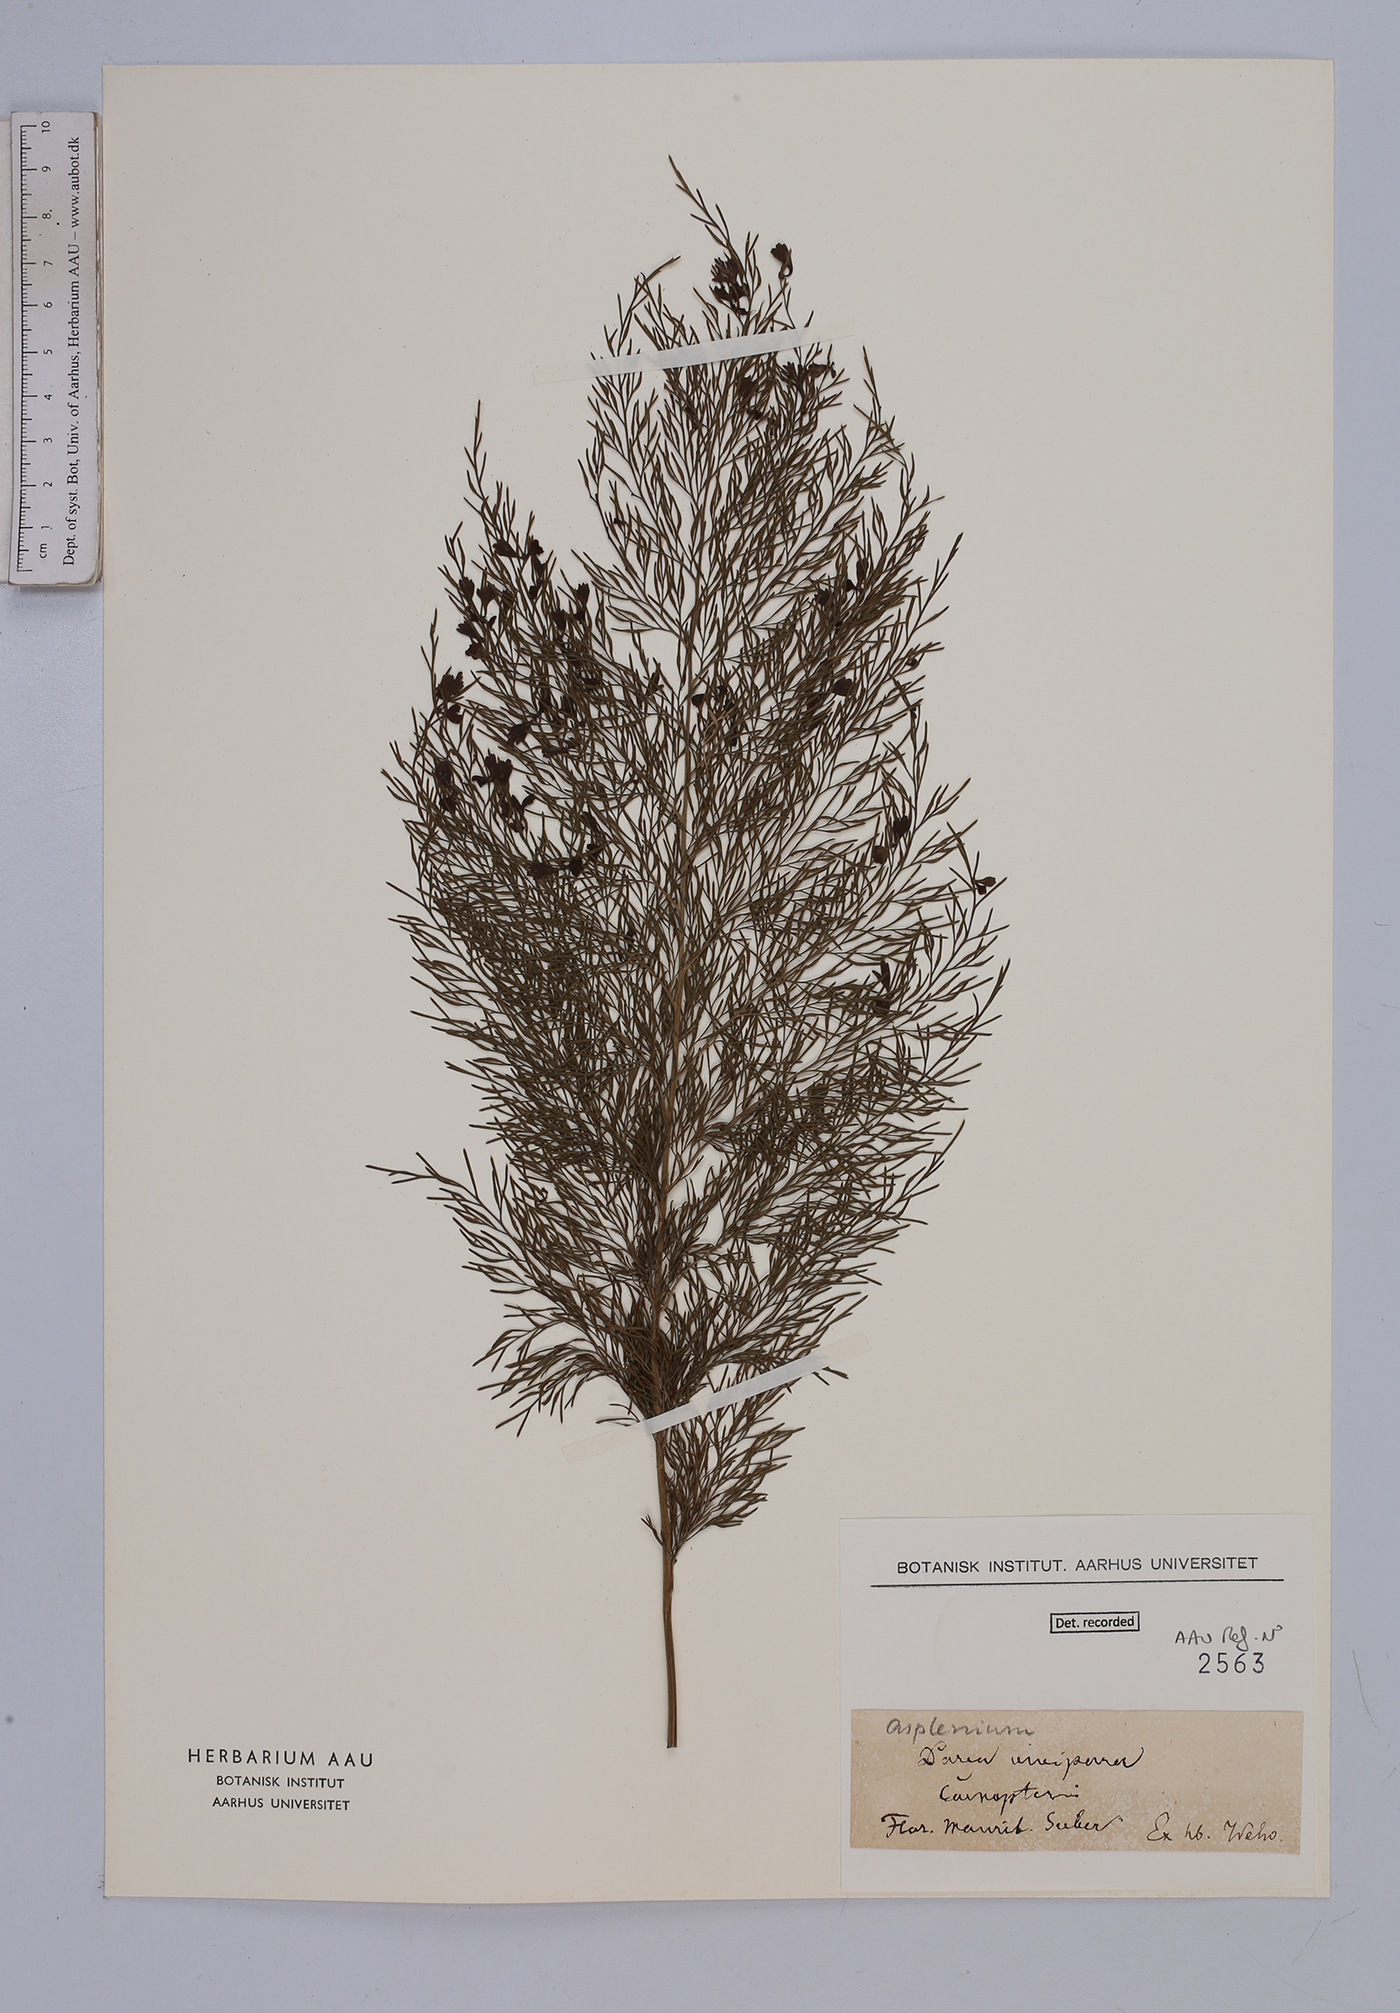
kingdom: Plantae
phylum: Tracheophyta
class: Polypodiopsida
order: Polypodiales
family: Aspleniaceae
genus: Asplenium
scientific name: Asplenium viviparioides
